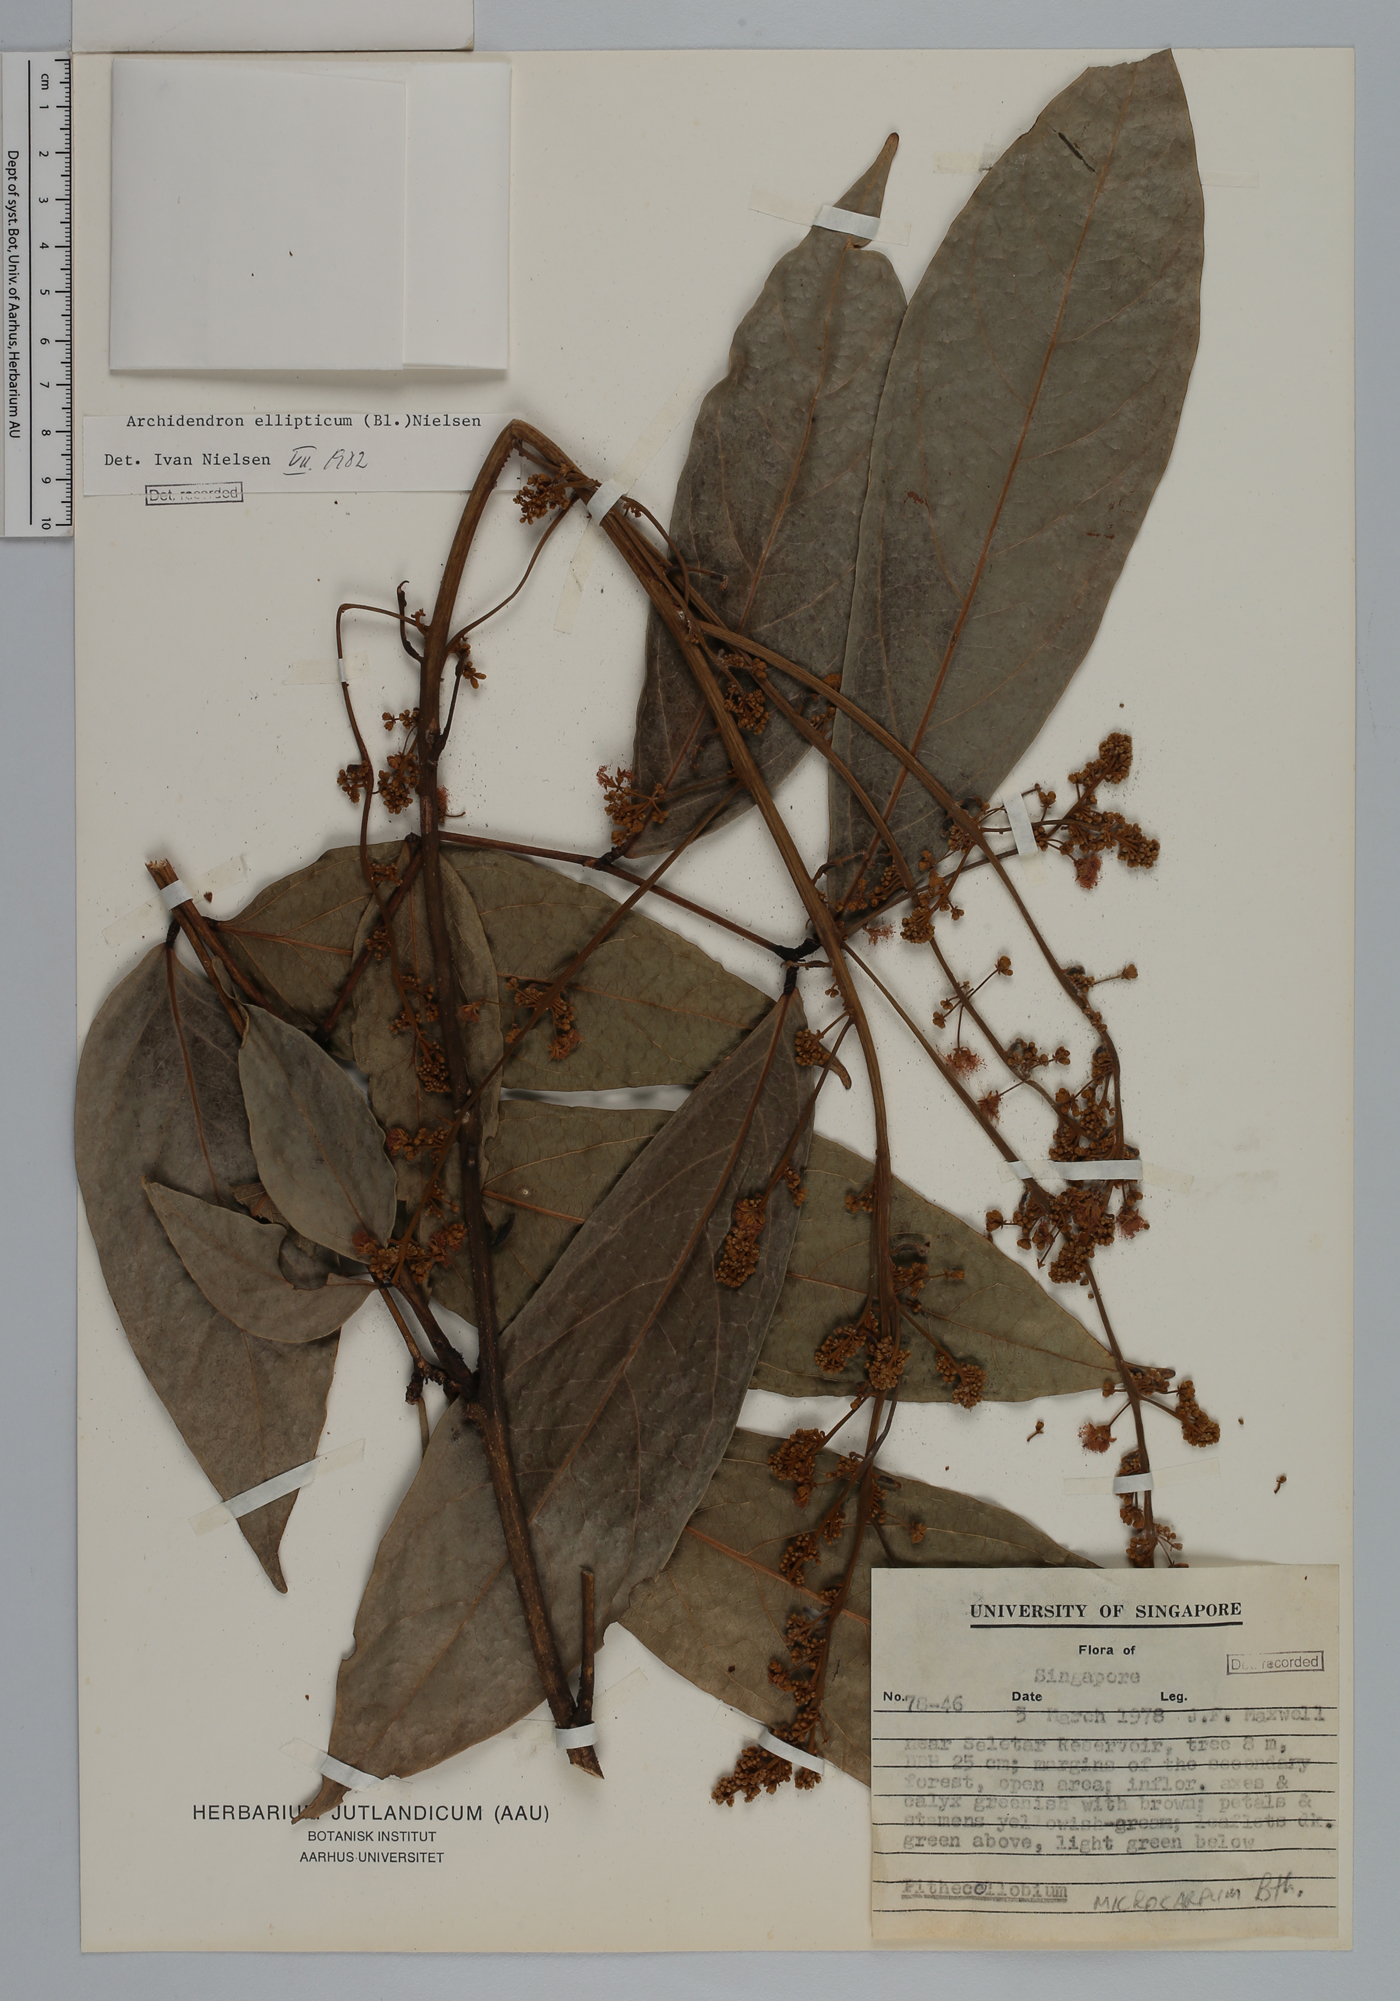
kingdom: Plantae
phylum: Tracheophyta
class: Magnoliopsida
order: Fabales
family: Fabaceae
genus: Archidendron
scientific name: Archidendron ellipticum
